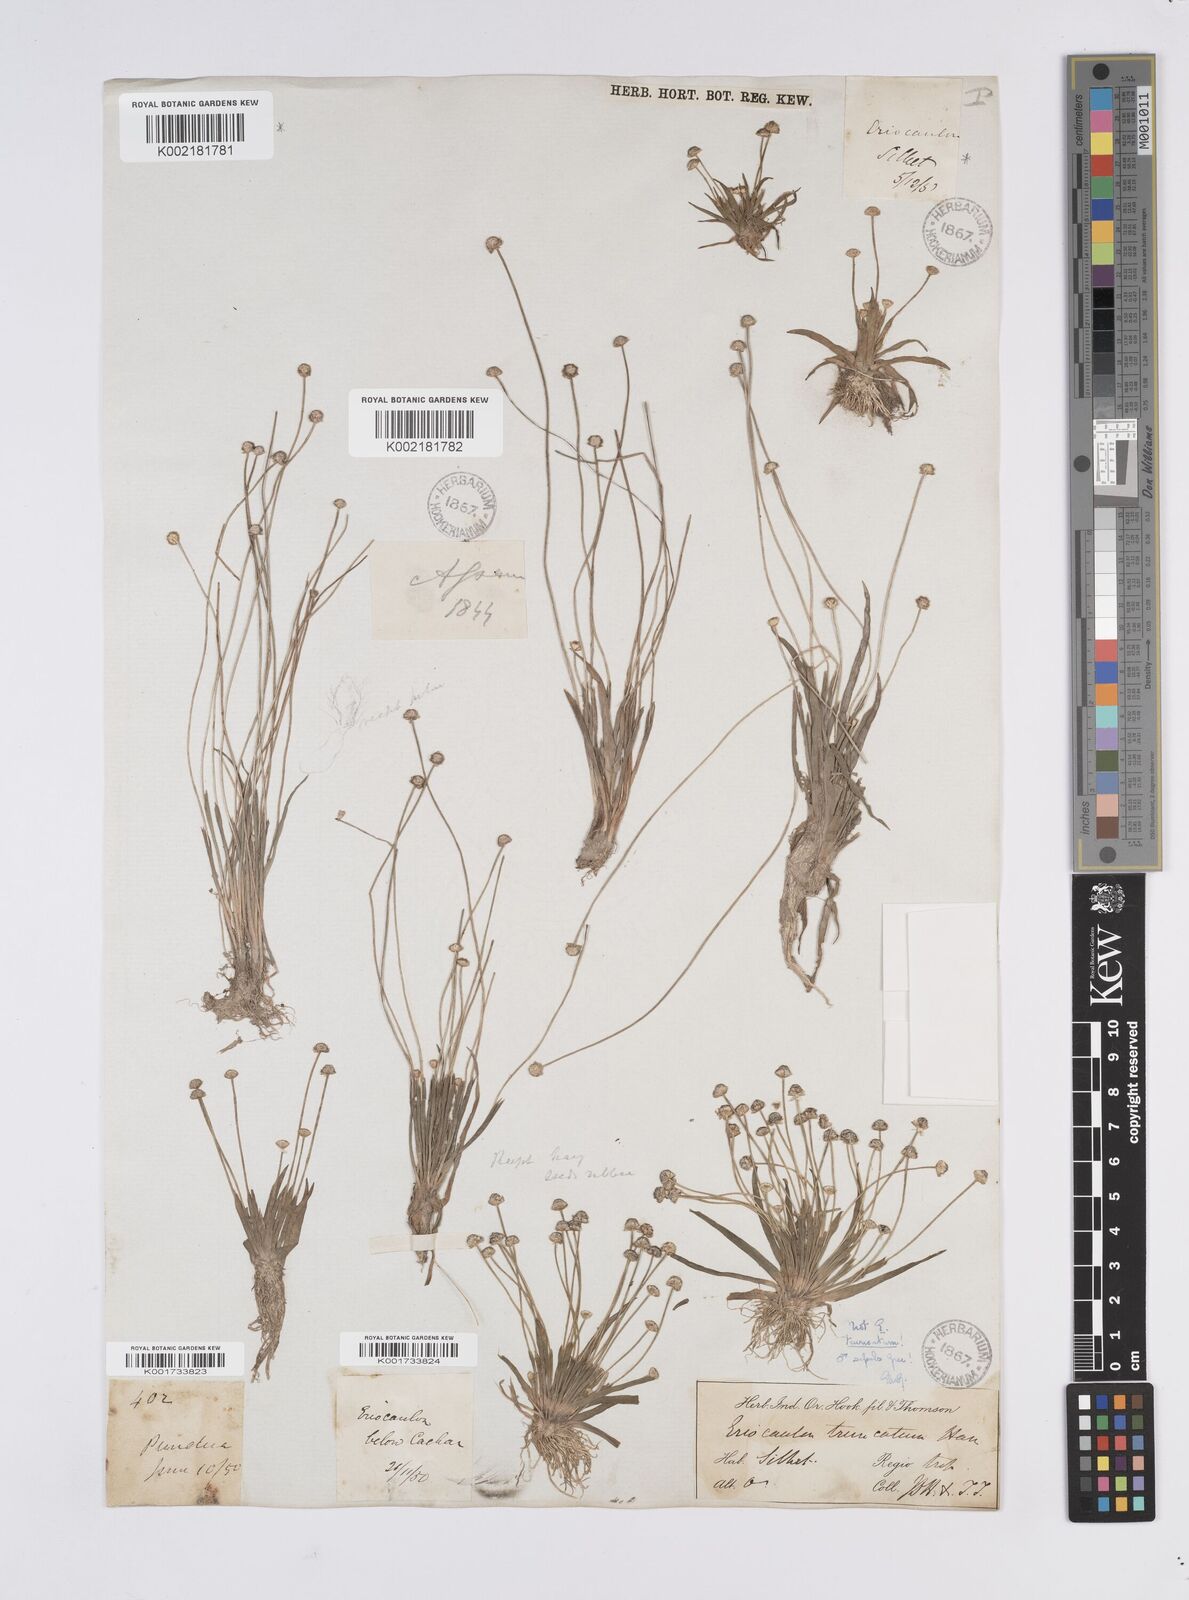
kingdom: Plantae
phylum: Tracheophyta
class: Liliopsida
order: Poales
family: Eriocaulaceae
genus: Eriocaulon
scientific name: Eriocaulon truncatum
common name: Short pipe-wort
